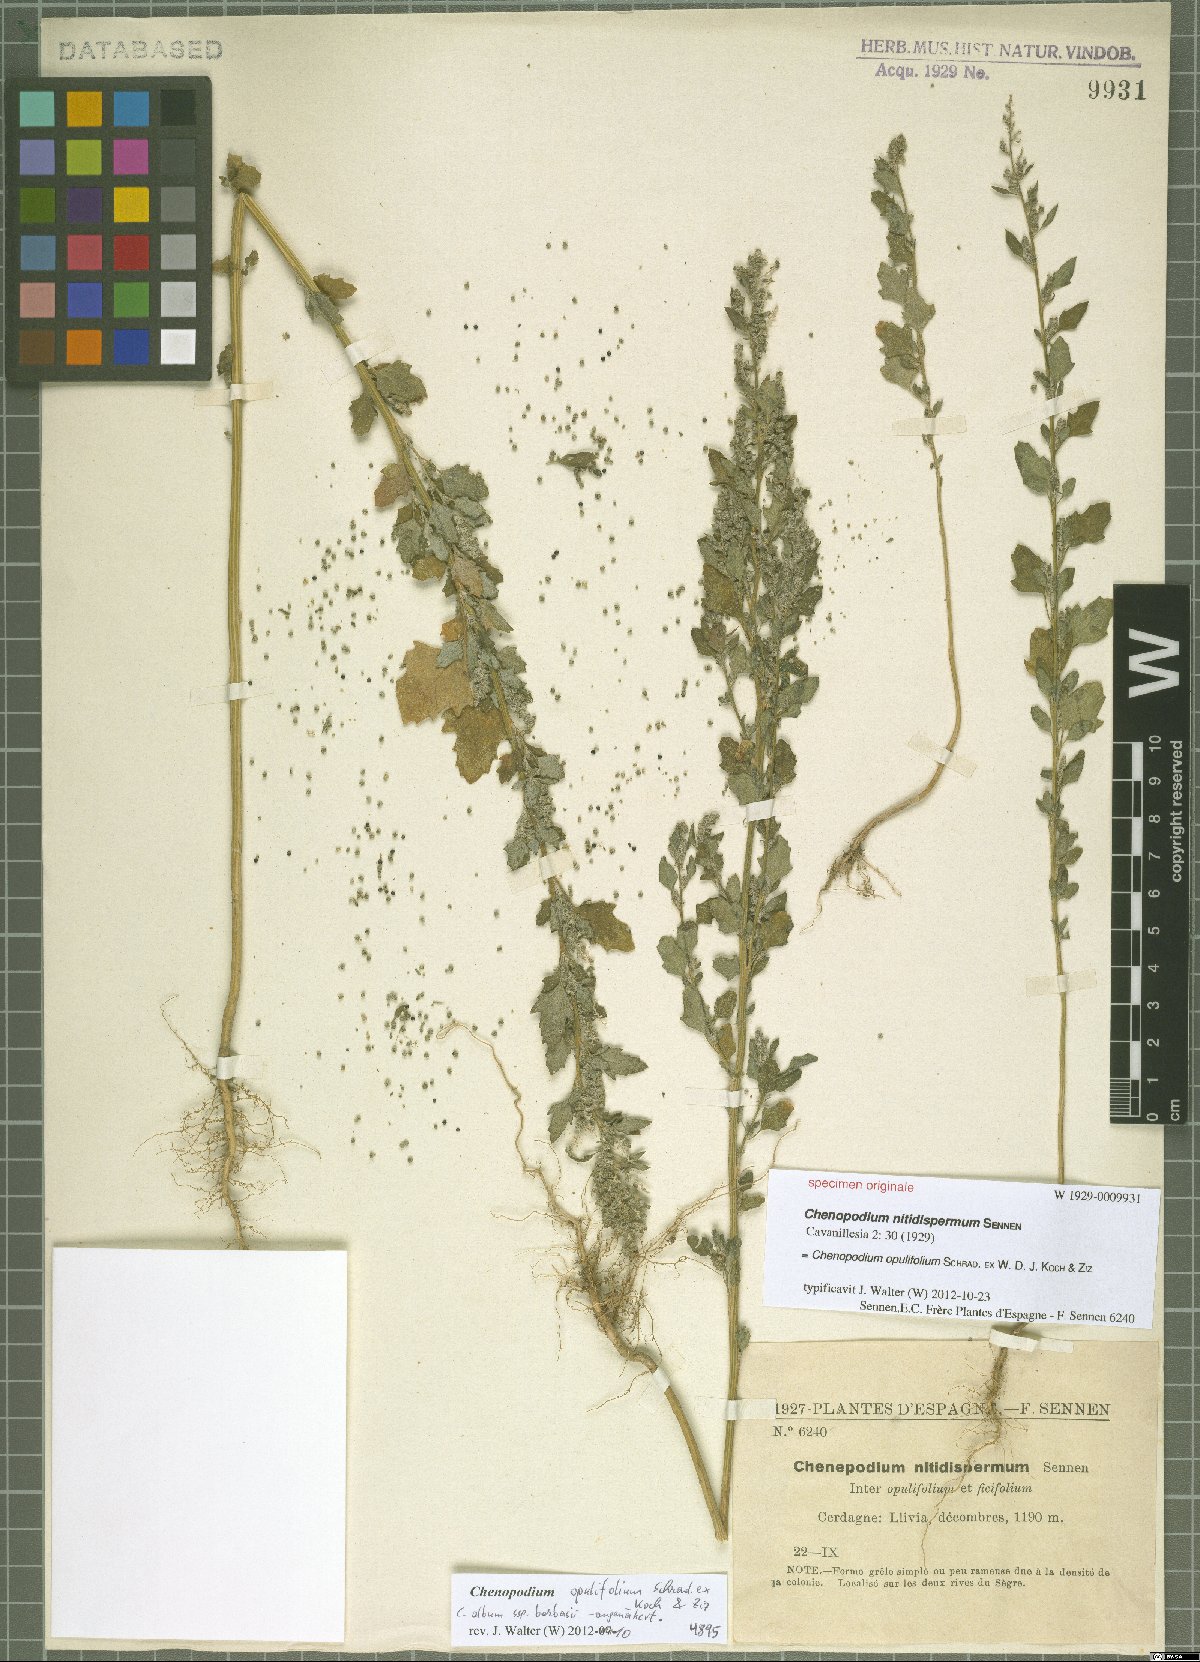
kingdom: Plantae
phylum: Tracheophyta
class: Magnoliopsida
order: Caryophyllales
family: Amaranthaceae
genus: Chenopodium
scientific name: Chenopodium opulifolium
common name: Grey goosefoot
